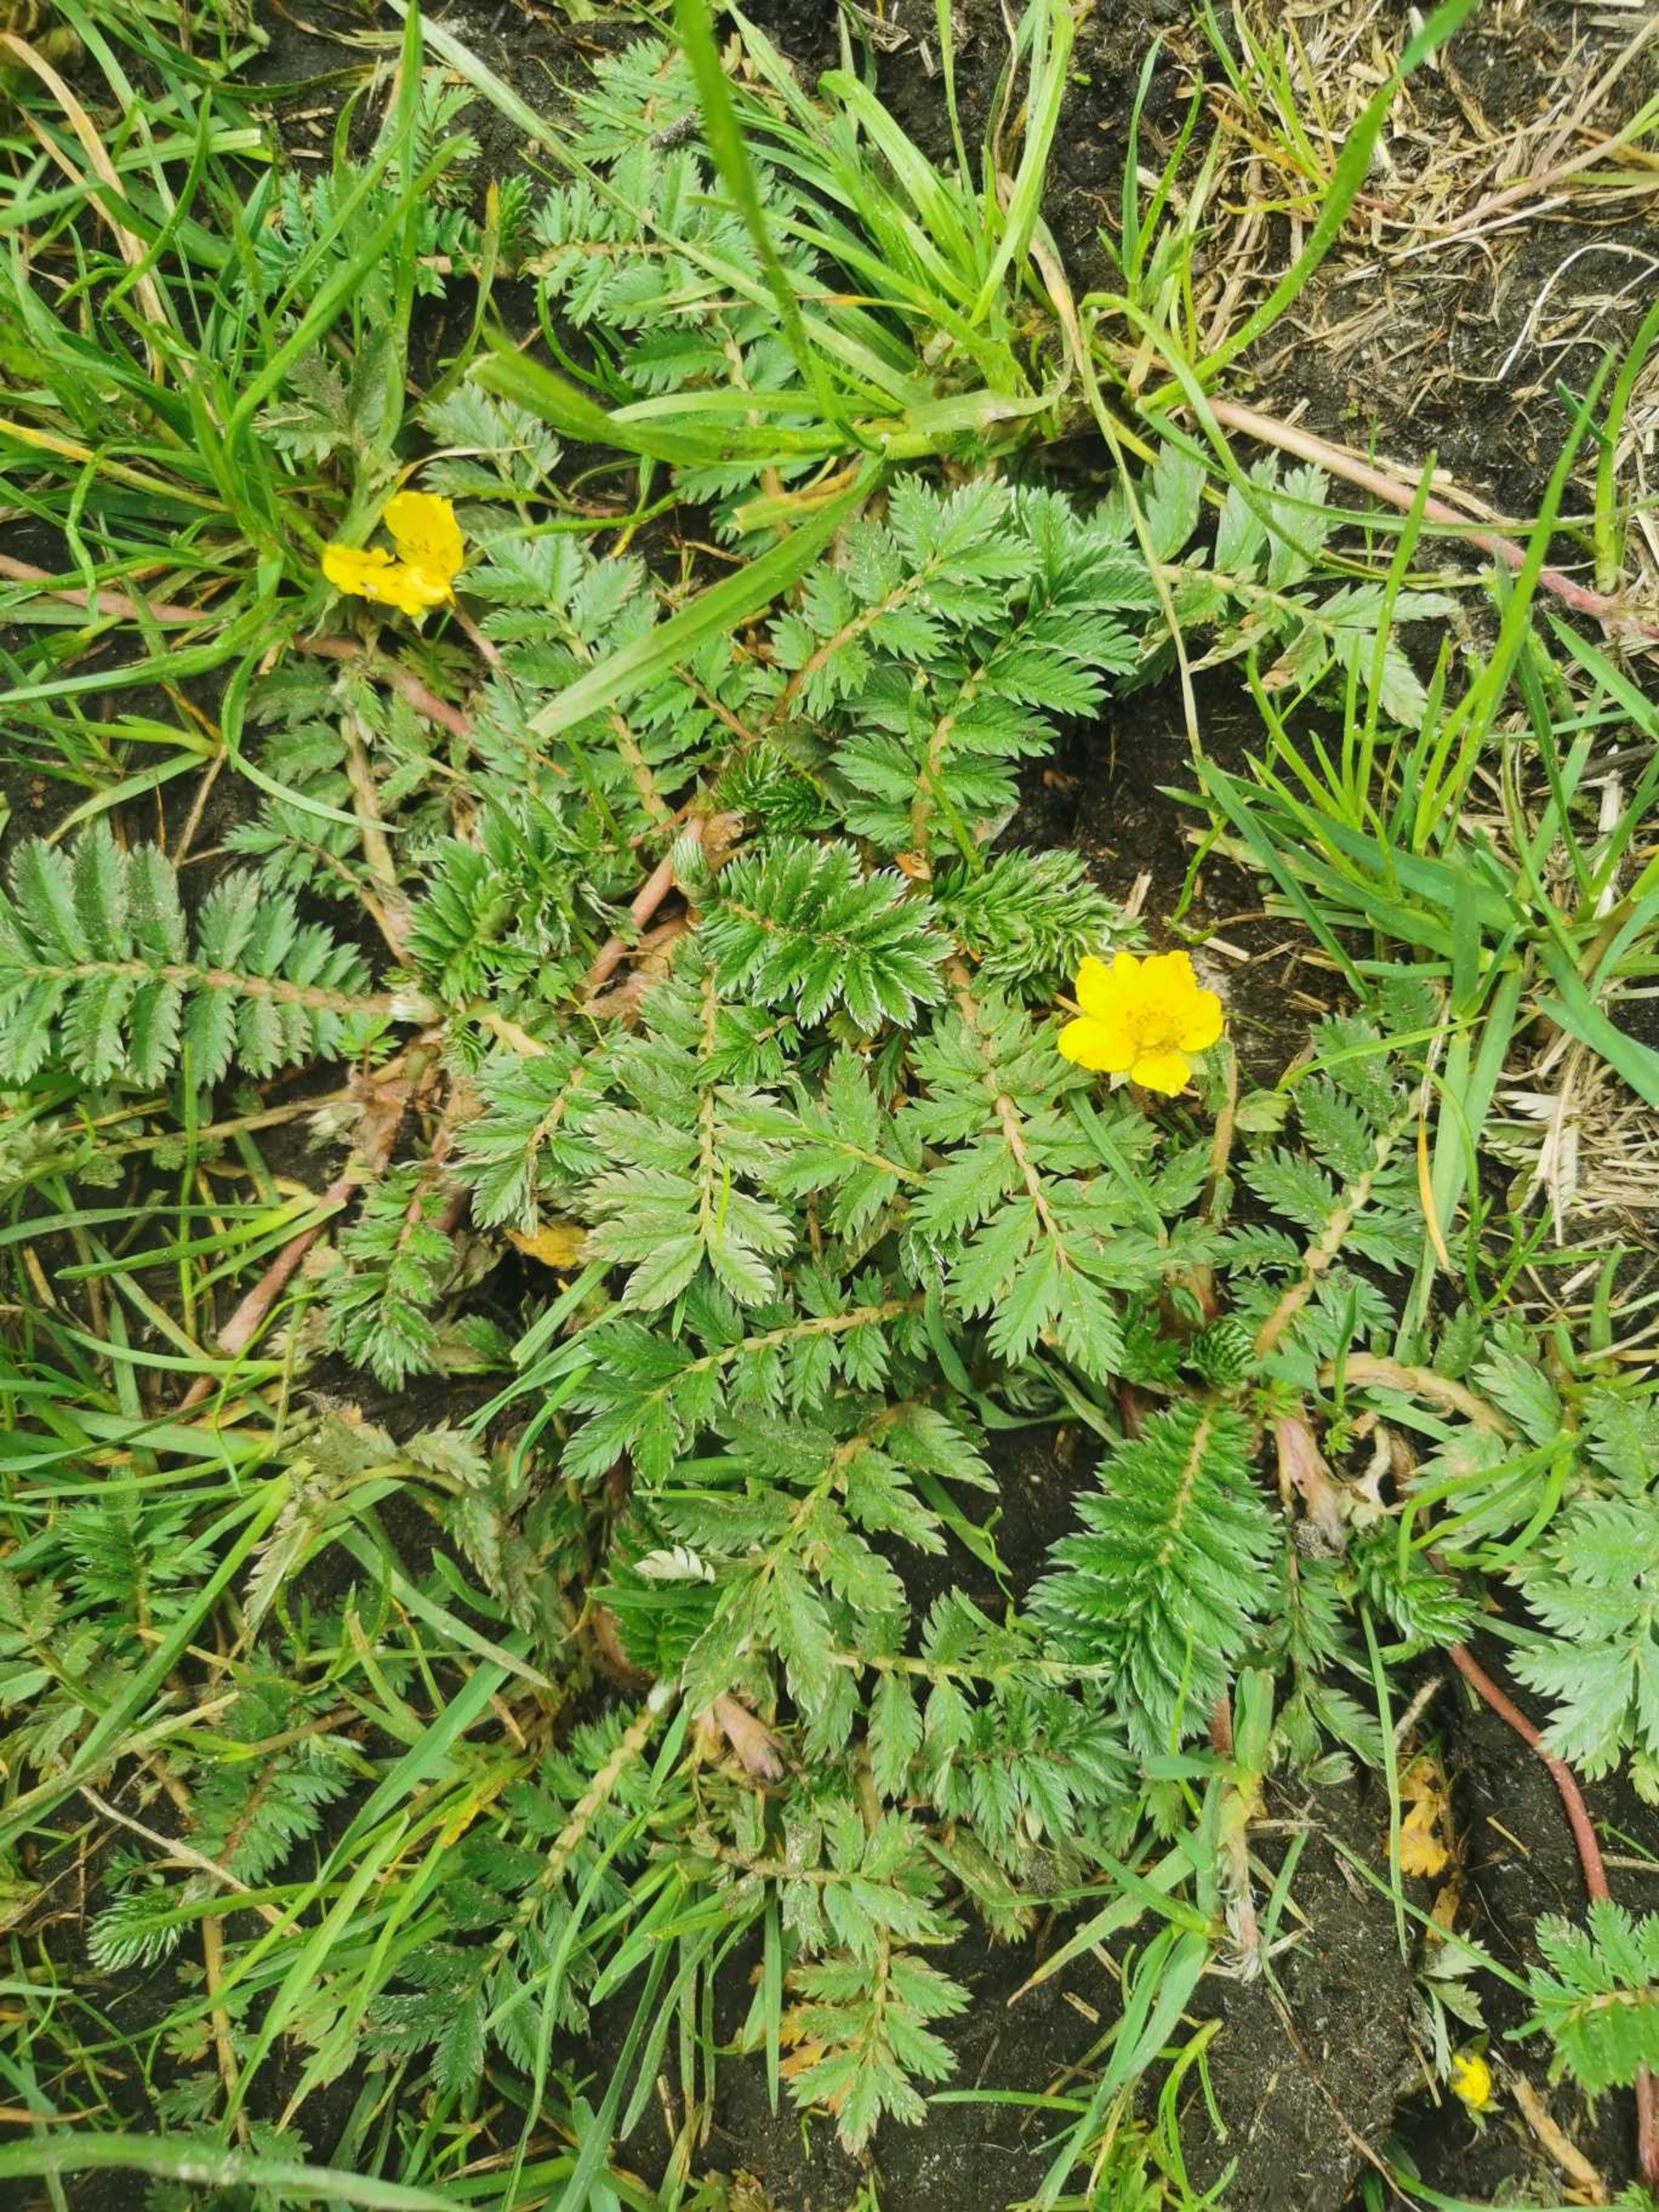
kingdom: Plantae
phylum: Tracheophyta
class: Magnoliopsida
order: Rosales
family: Rosaceae
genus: Argentina
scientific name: Argentina anserina
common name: Gåsepotentil
